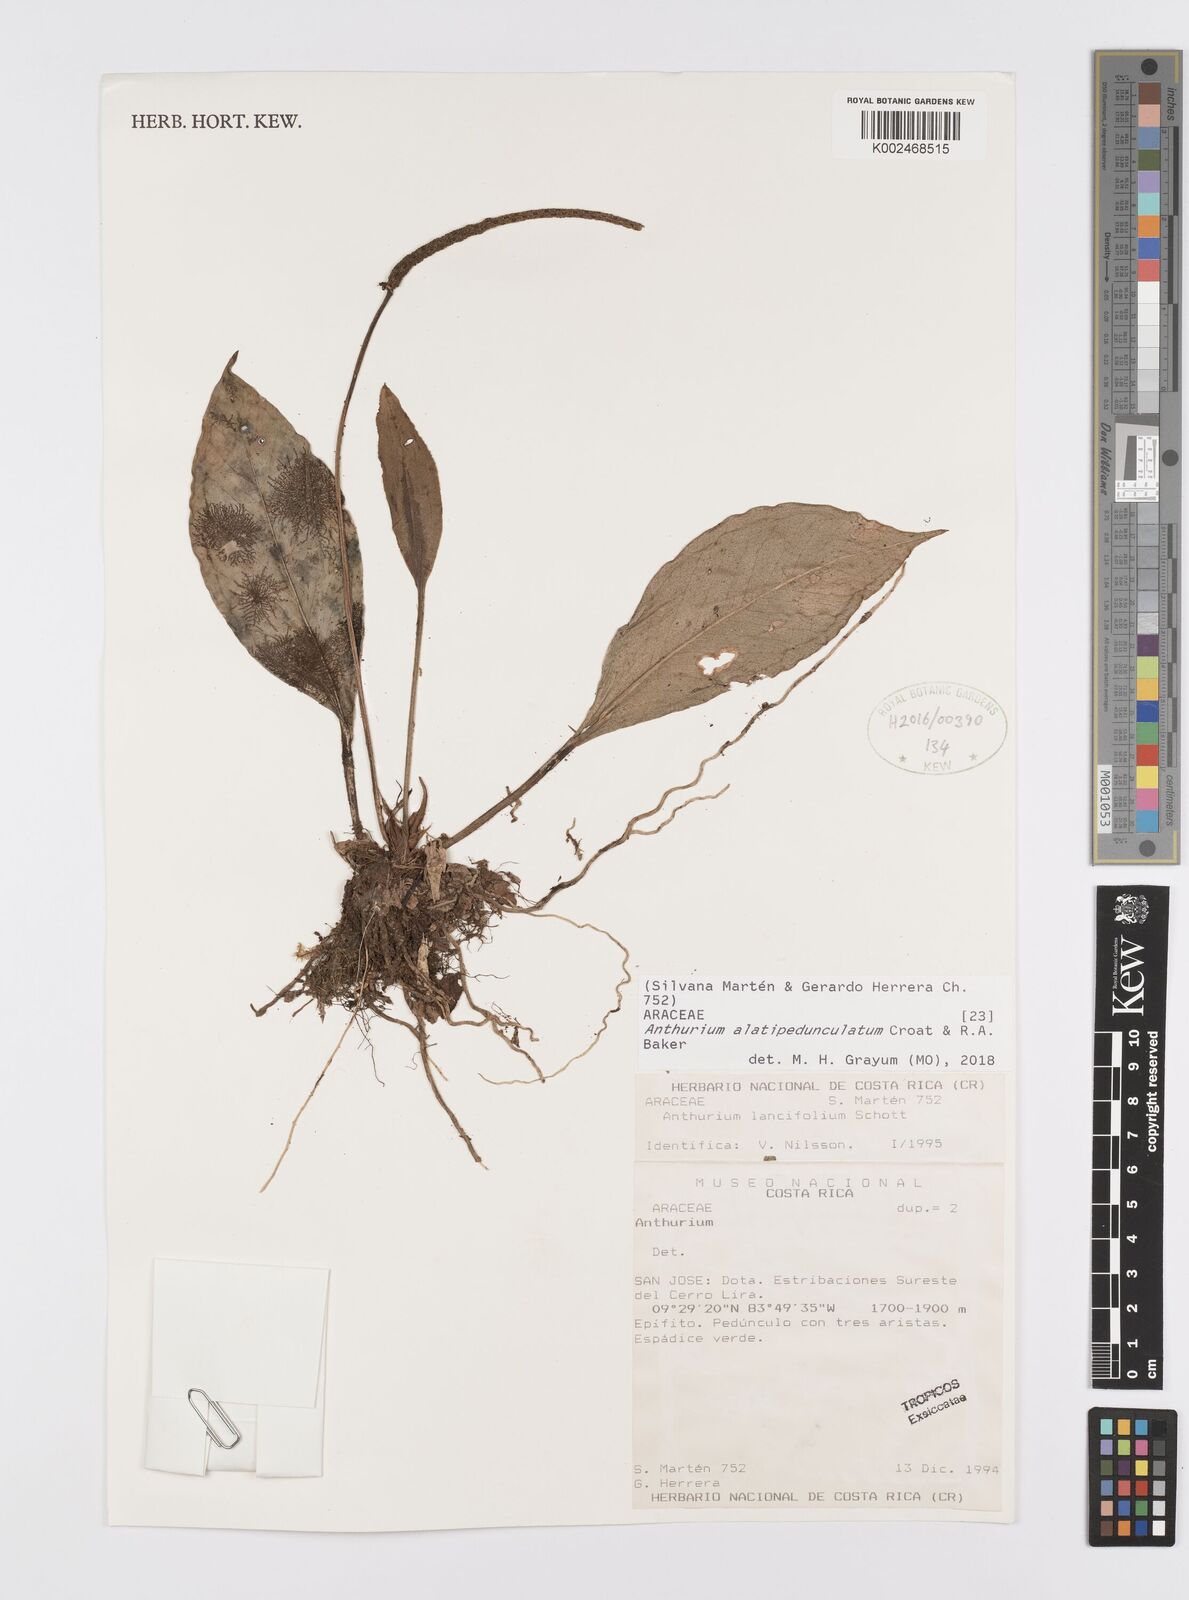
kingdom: Plantae
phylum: Tracheophyta
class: Liliopsida
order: Alismatales
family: Araceae
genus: Anthurium
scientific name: Anthurium alatipedunculatum
